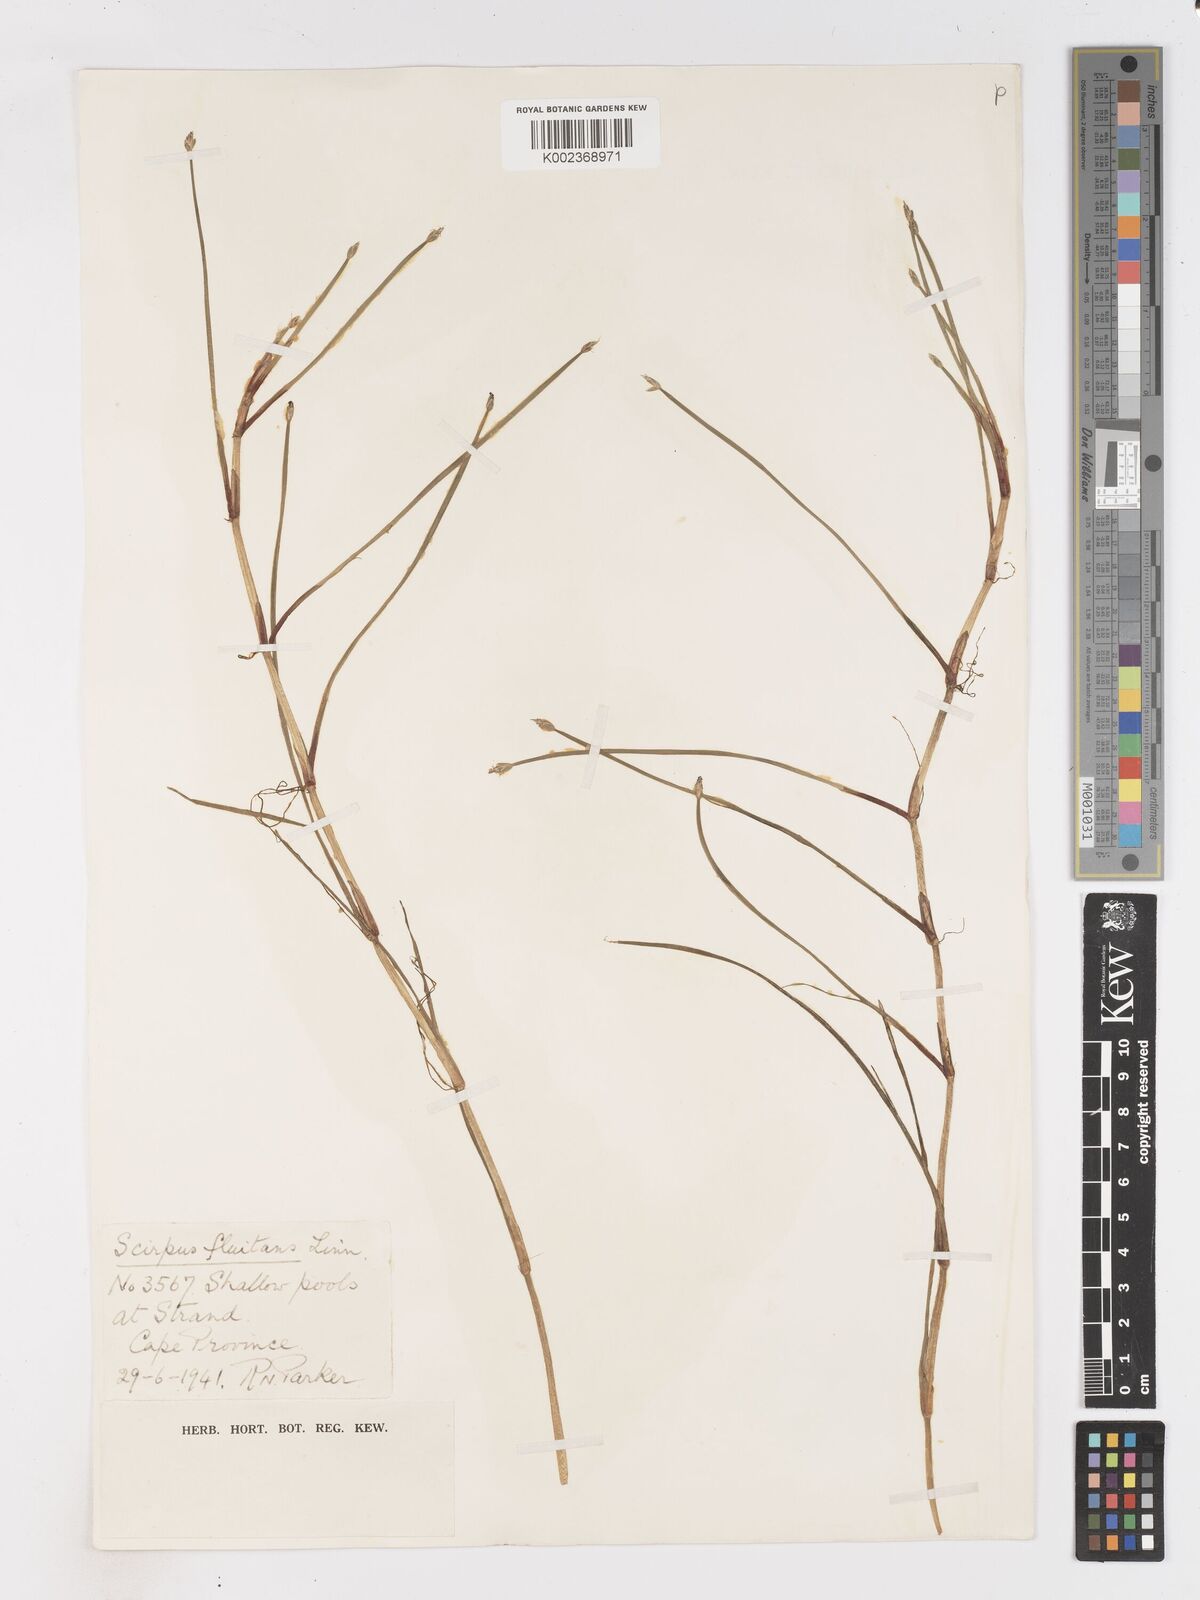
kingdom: Plantae
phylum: Tracheophyta
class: Liliopsida
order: Poales
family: Cyperaceae
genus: Isolepis
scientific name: Isolepis striata
